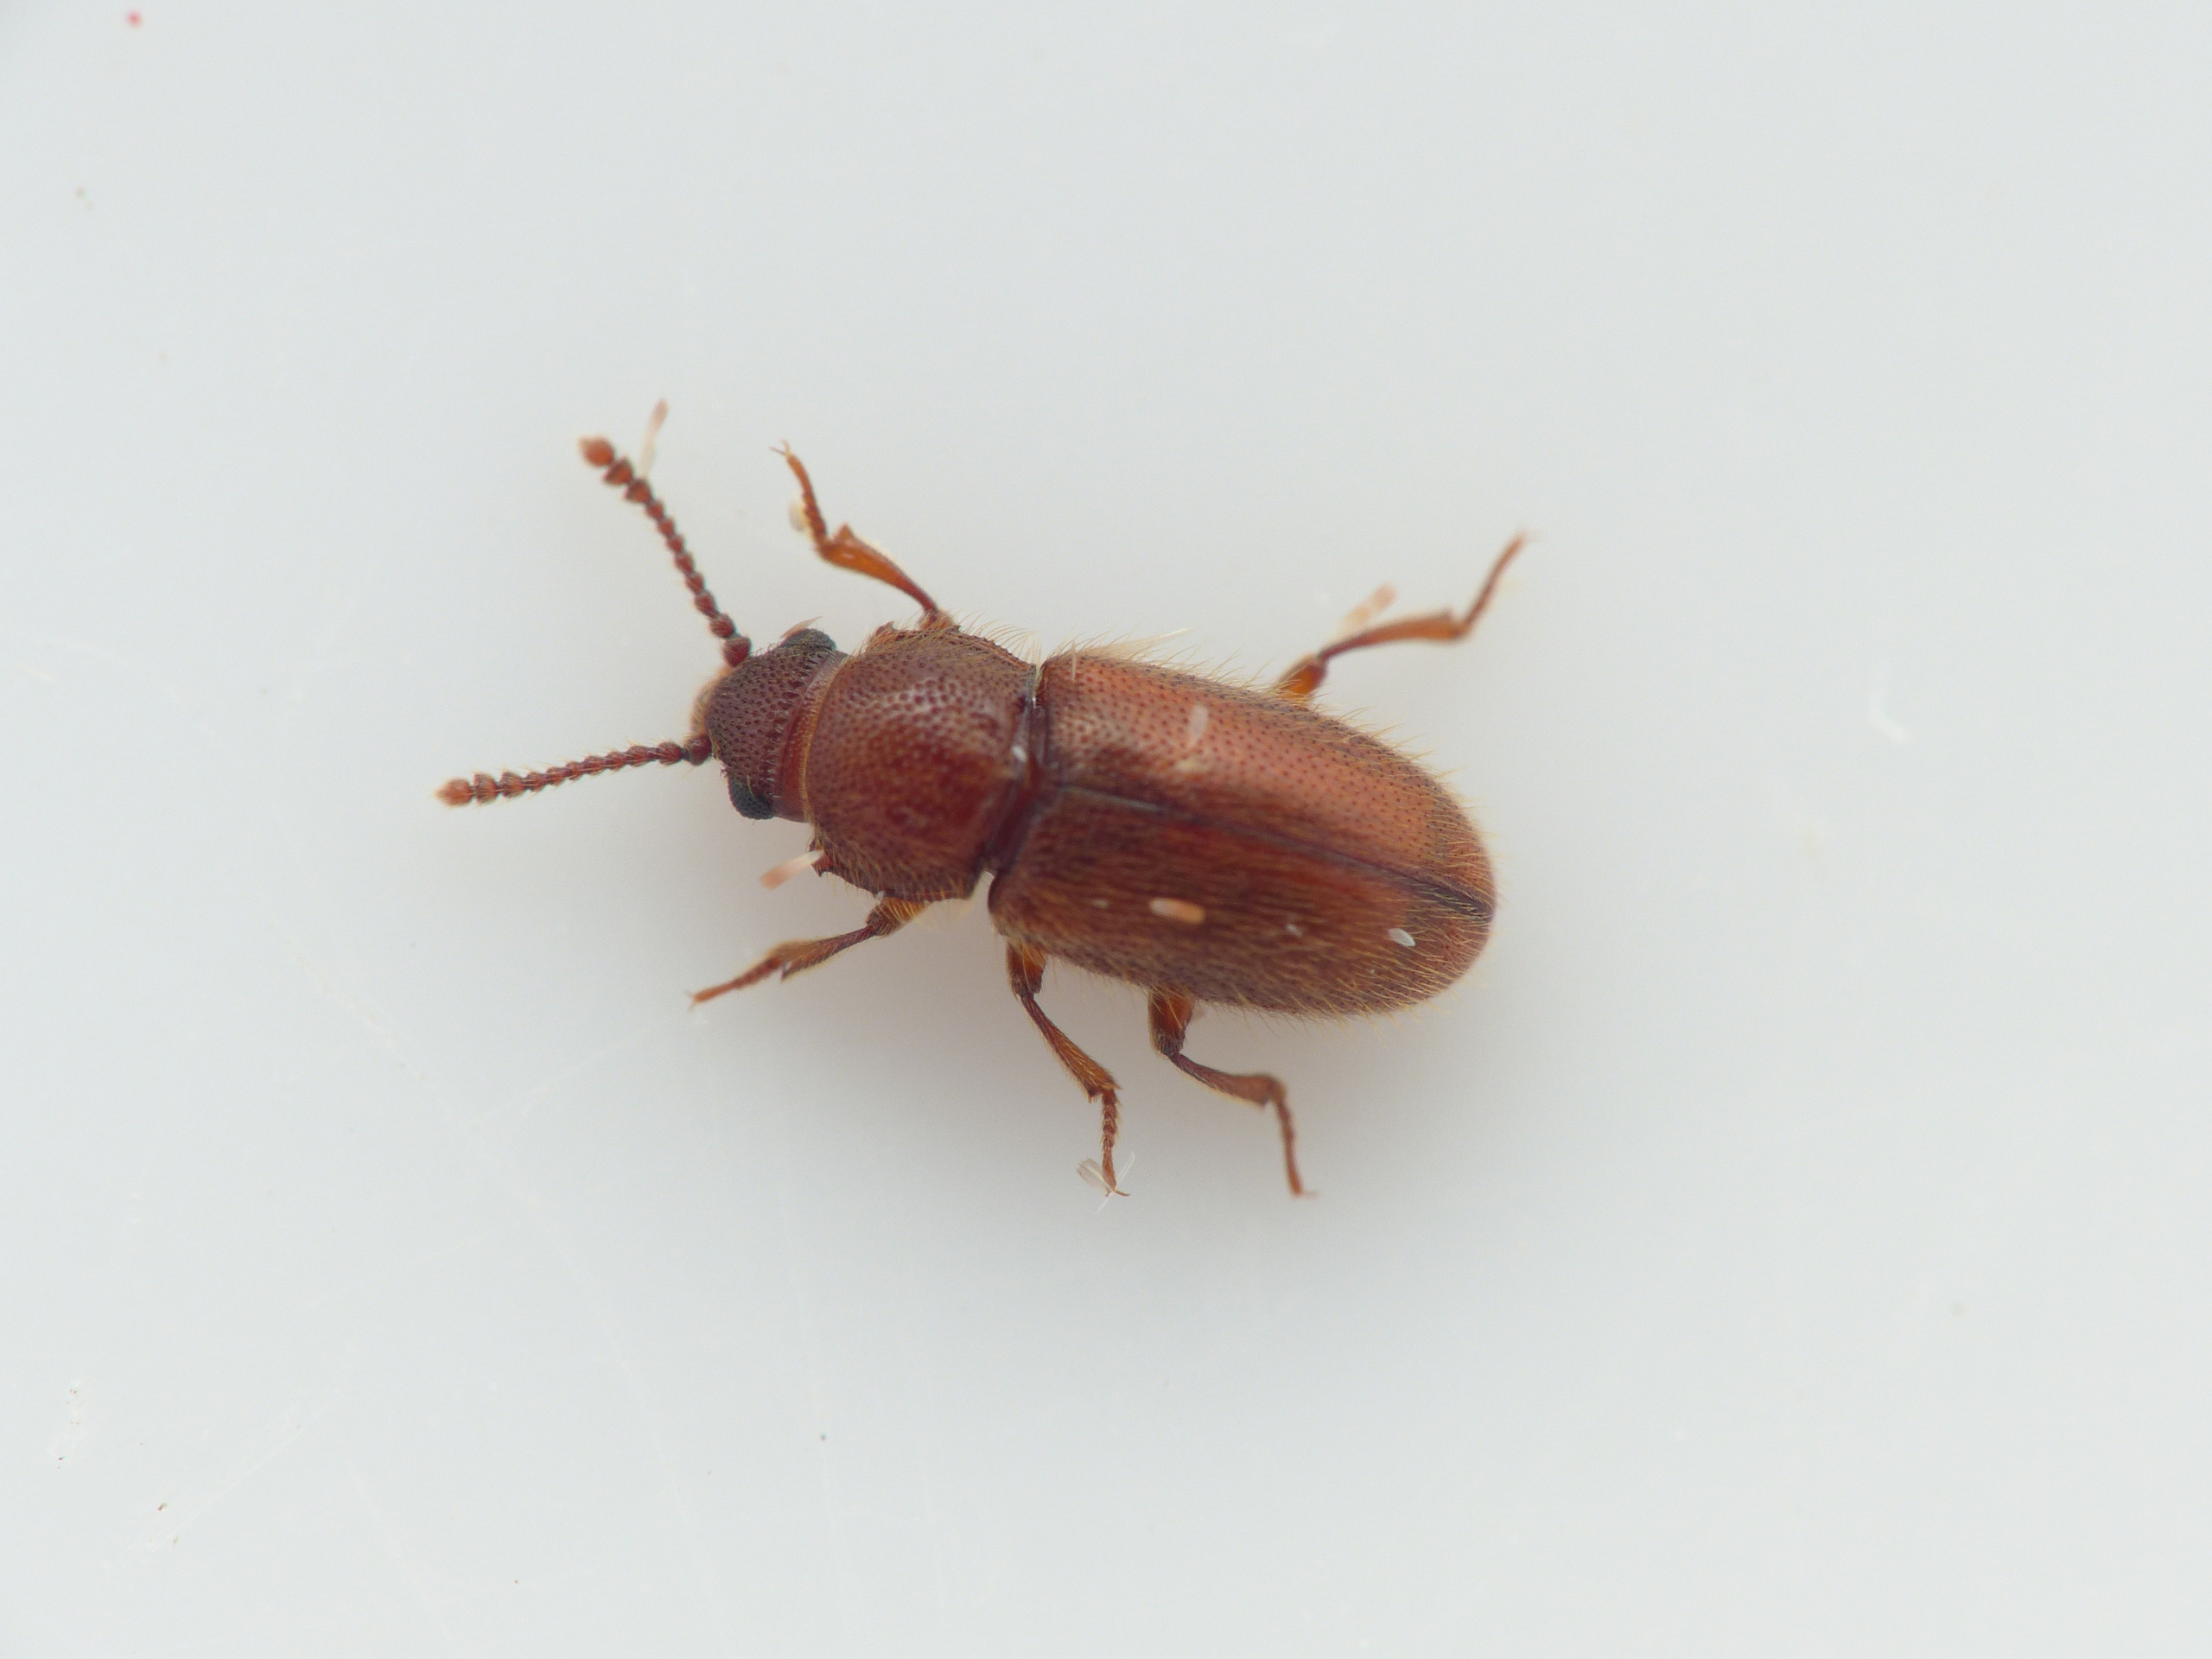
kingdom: Animalia
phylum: Arthropoda
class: Insecta
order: Coleoptera
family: Cryptophagidae
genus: Cryptophagus
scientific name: Cryptophagus lycoperdi
